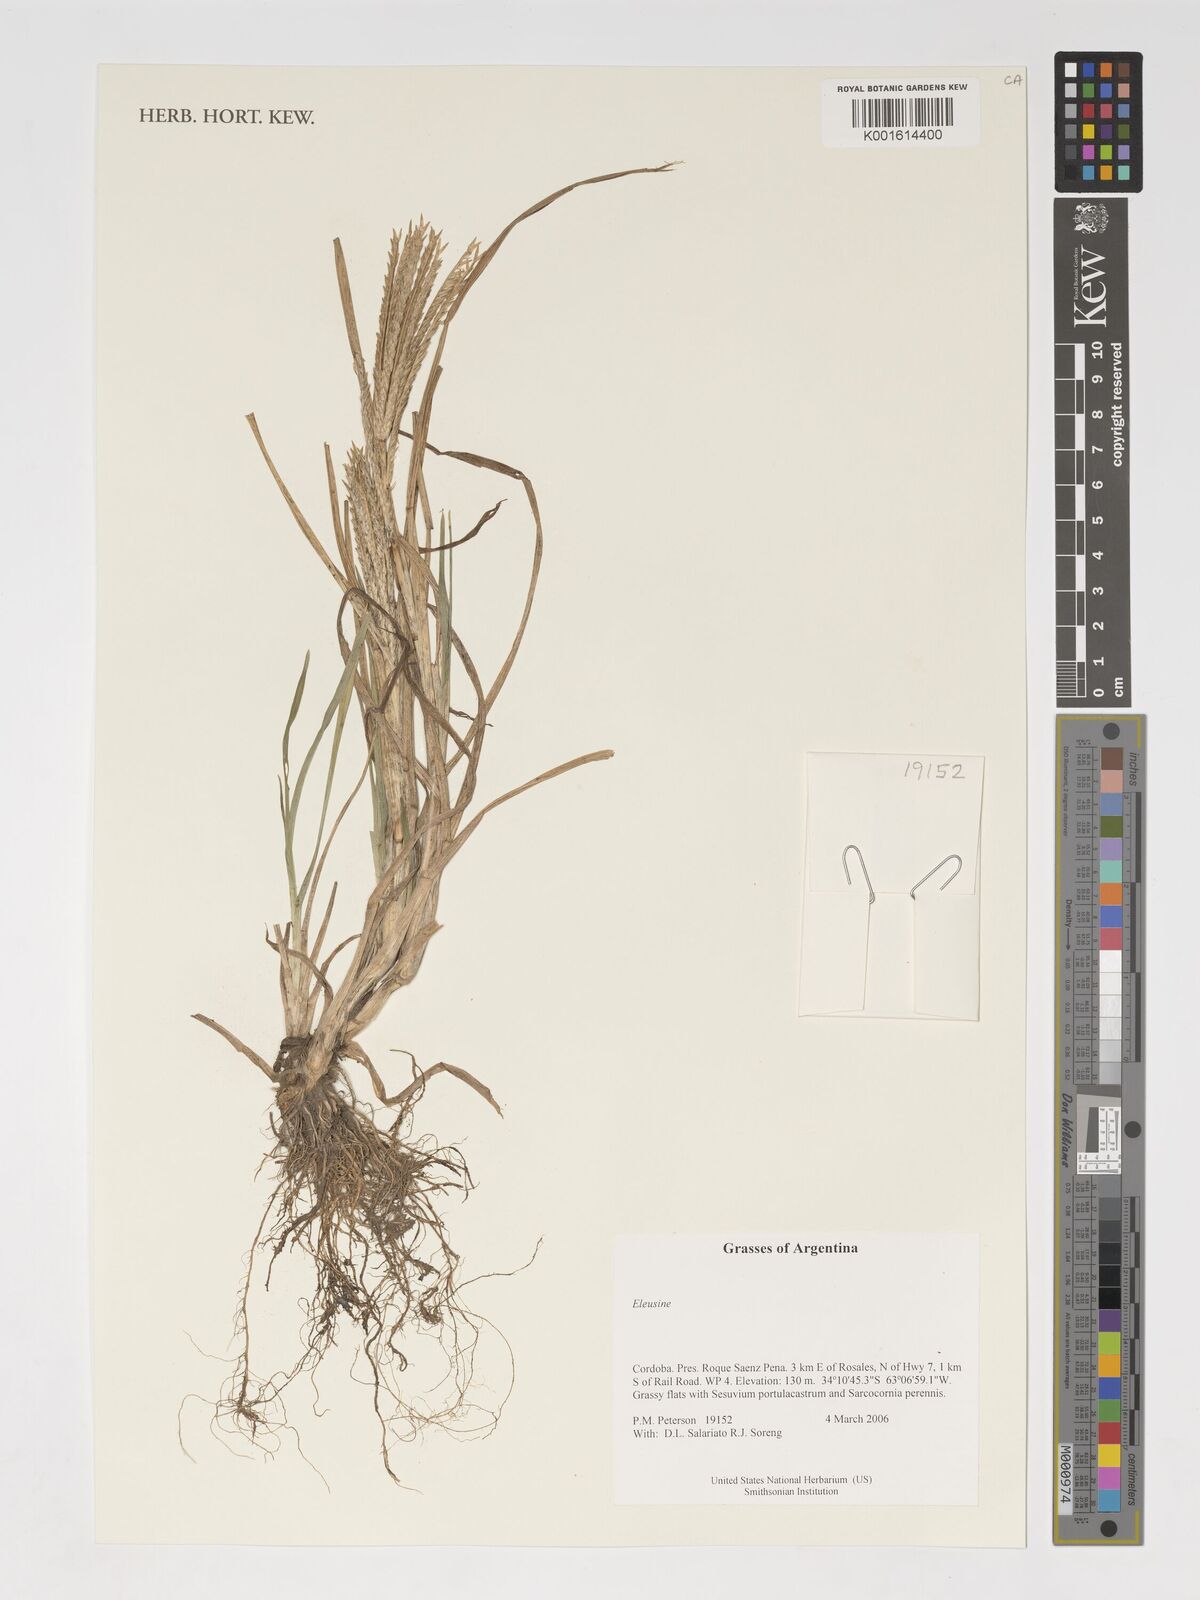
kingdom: Plantae
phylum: Tracheophyta
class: Liliopsida
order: Poales
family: Poaceae
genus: Eleusine
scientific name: Eleusine
